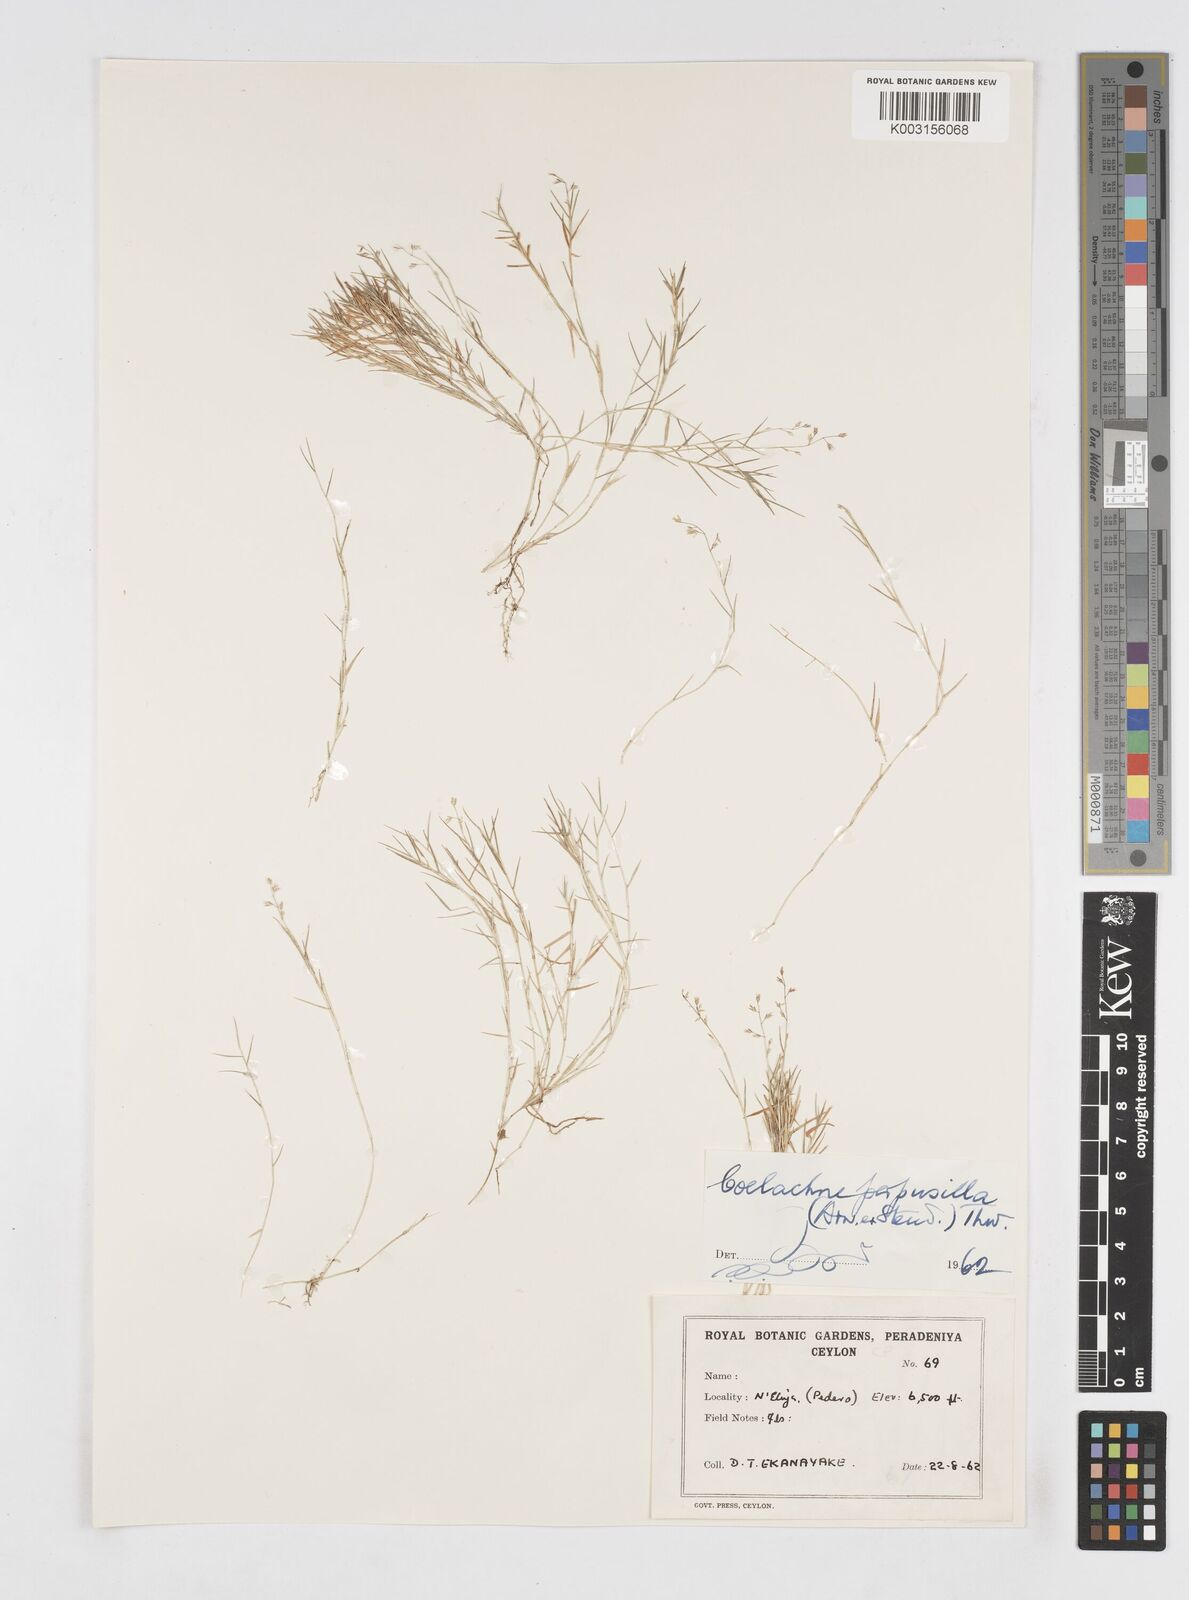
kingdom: Plantae
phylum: Tracheophyta
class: Liliopsida
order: Poales
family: Poaceae
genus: Coelachne
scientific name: Coelachne perpusilla
